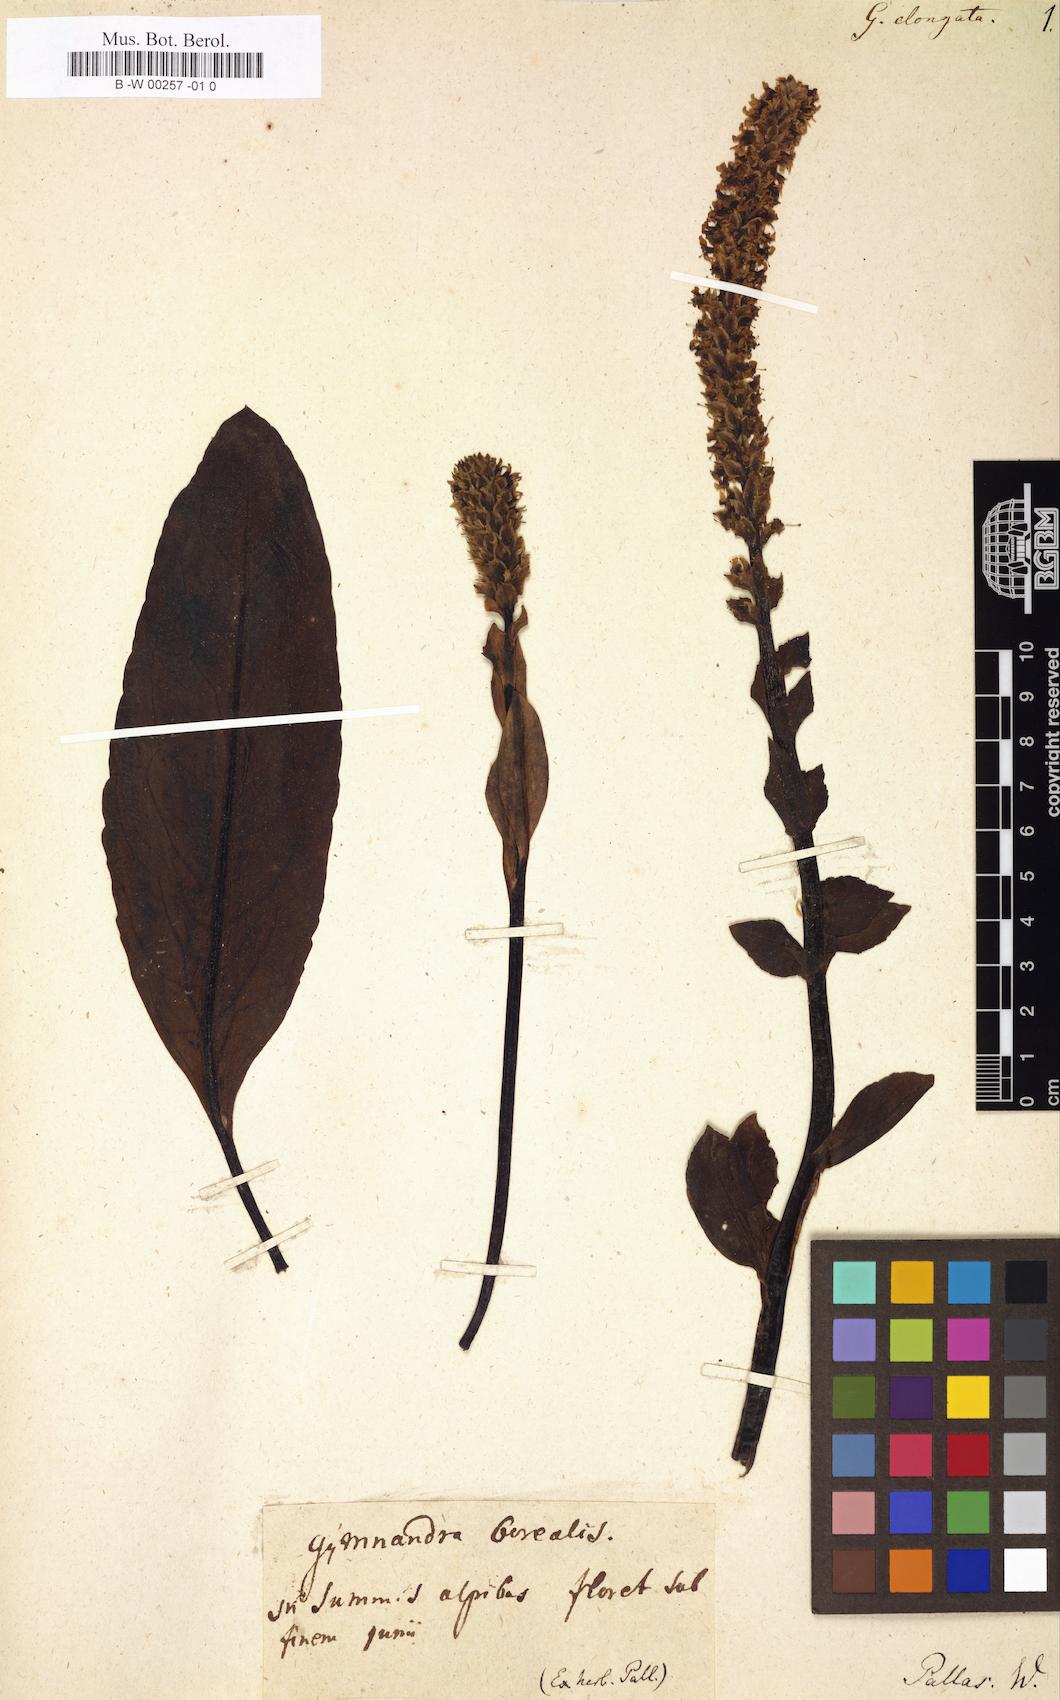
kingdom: Plantae
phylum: Tracheophyta
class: Magnoliopsida
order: Lamiales
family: Plantaginaceae
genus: Lagotis
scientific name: Lagotis glauca
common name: Glaucous weaselsnout
